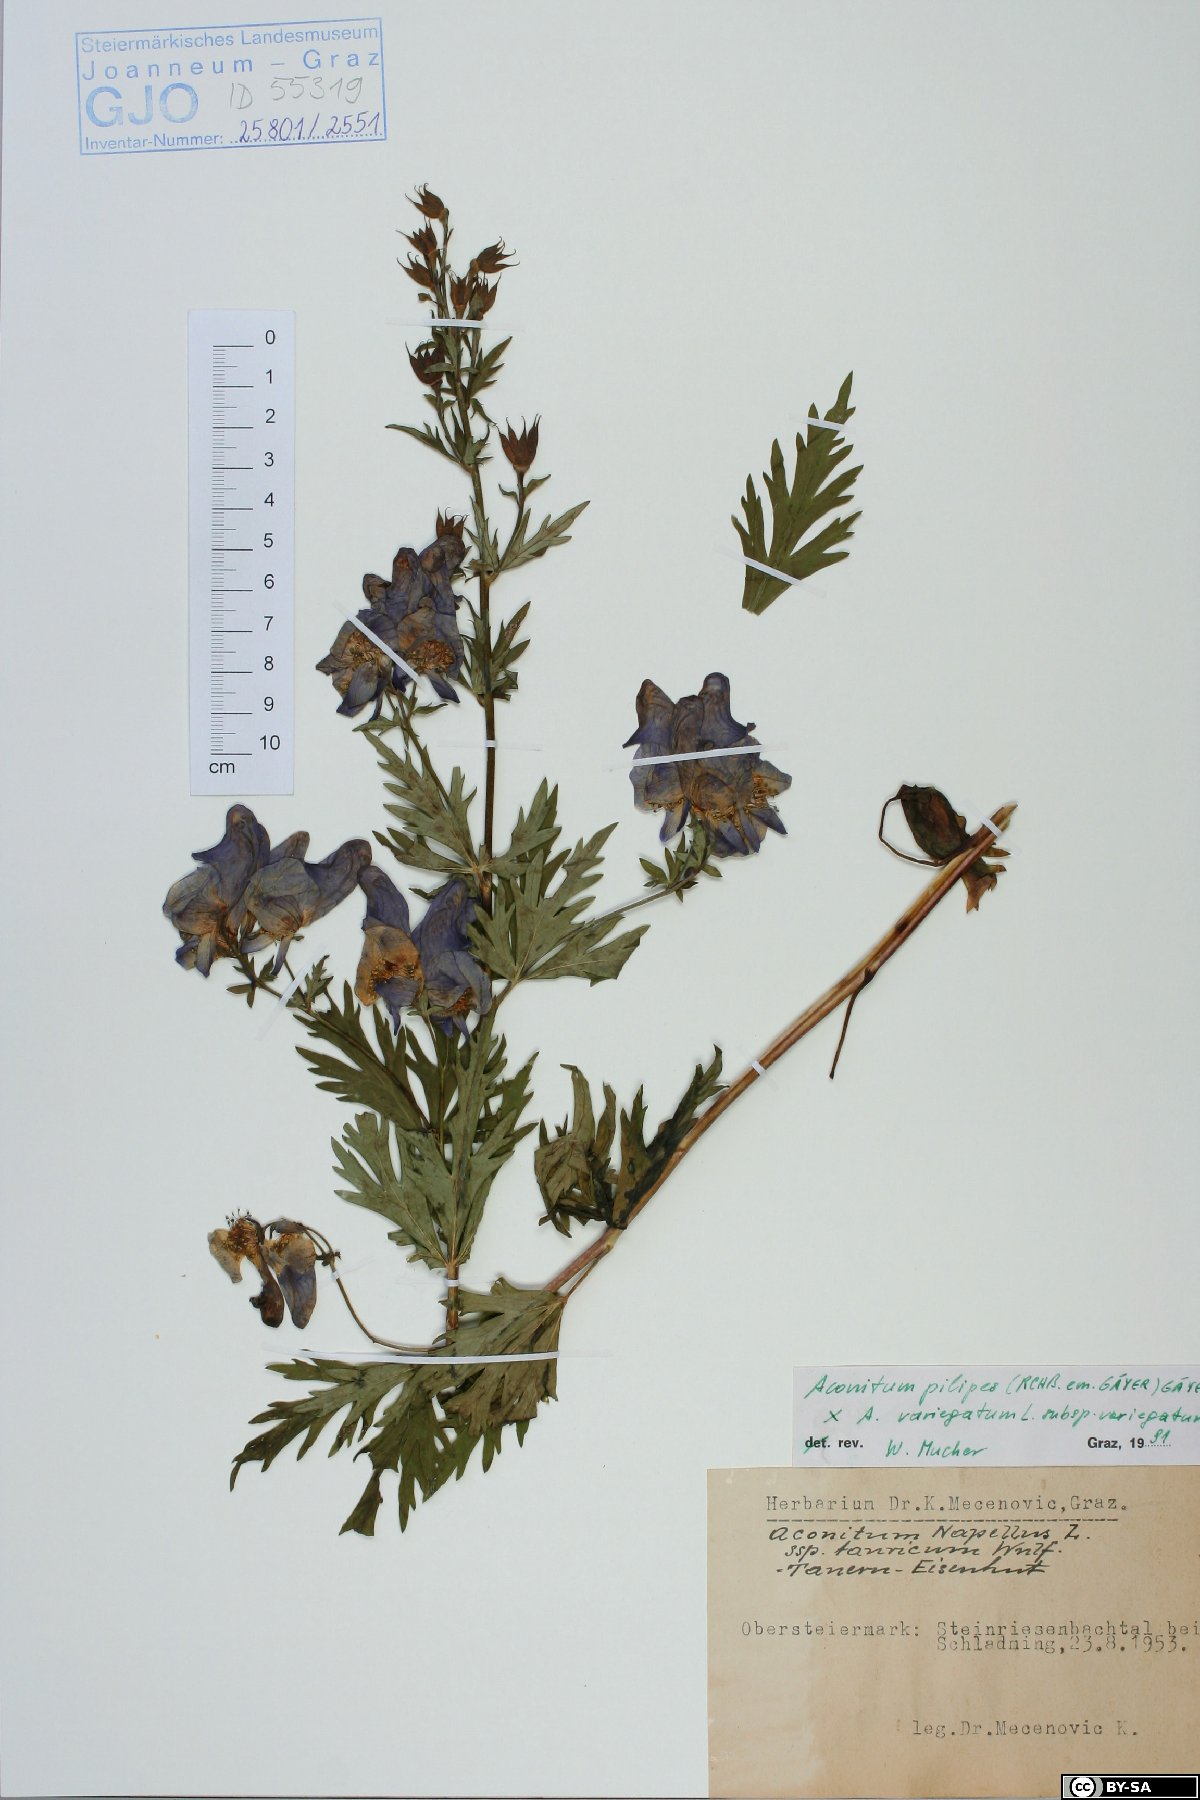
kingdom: Plantae
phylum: Tracheophyta
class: Magnoliopsida
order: Ranunculales
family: Ranunculaceae
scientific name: Ranunculaceae
